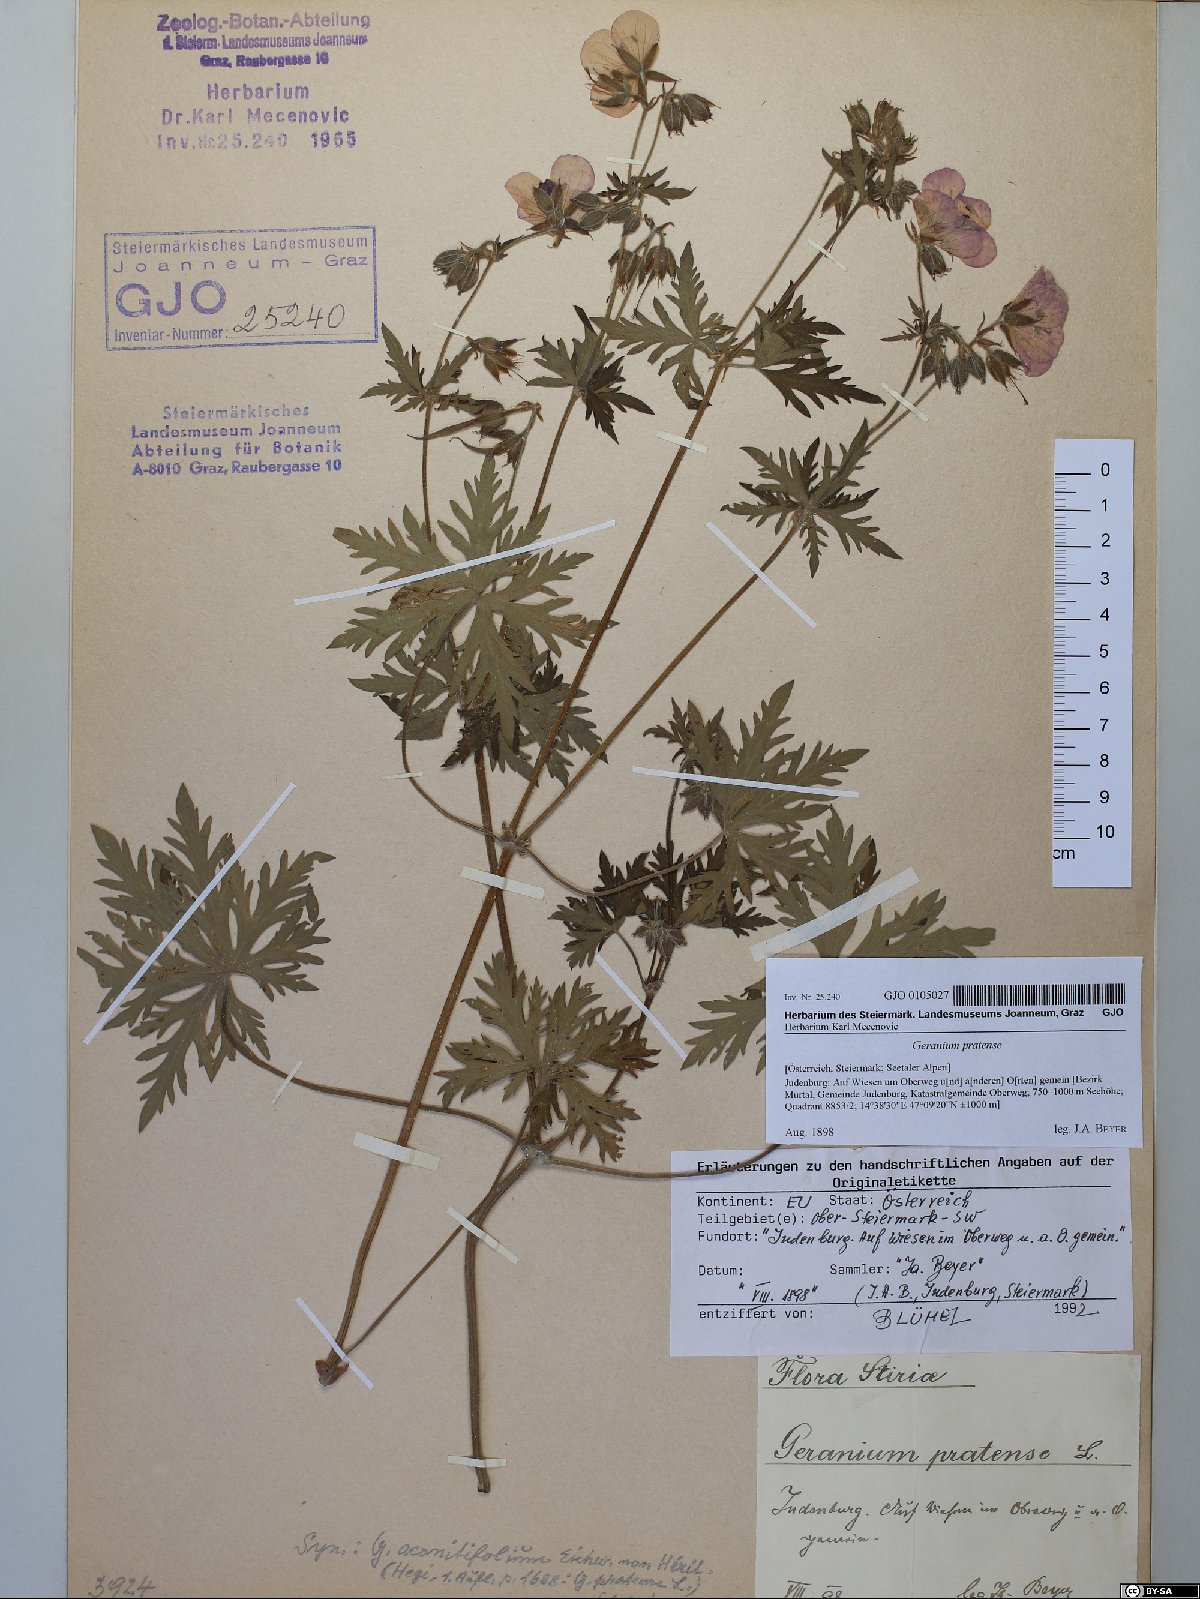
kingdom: Plantae
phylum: Tracheophyta
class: Magnoliopsida
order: Geraniales
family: Geraniaceae
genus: Geranium
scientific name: Geranium pratense
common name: Meadow crane's-bill
